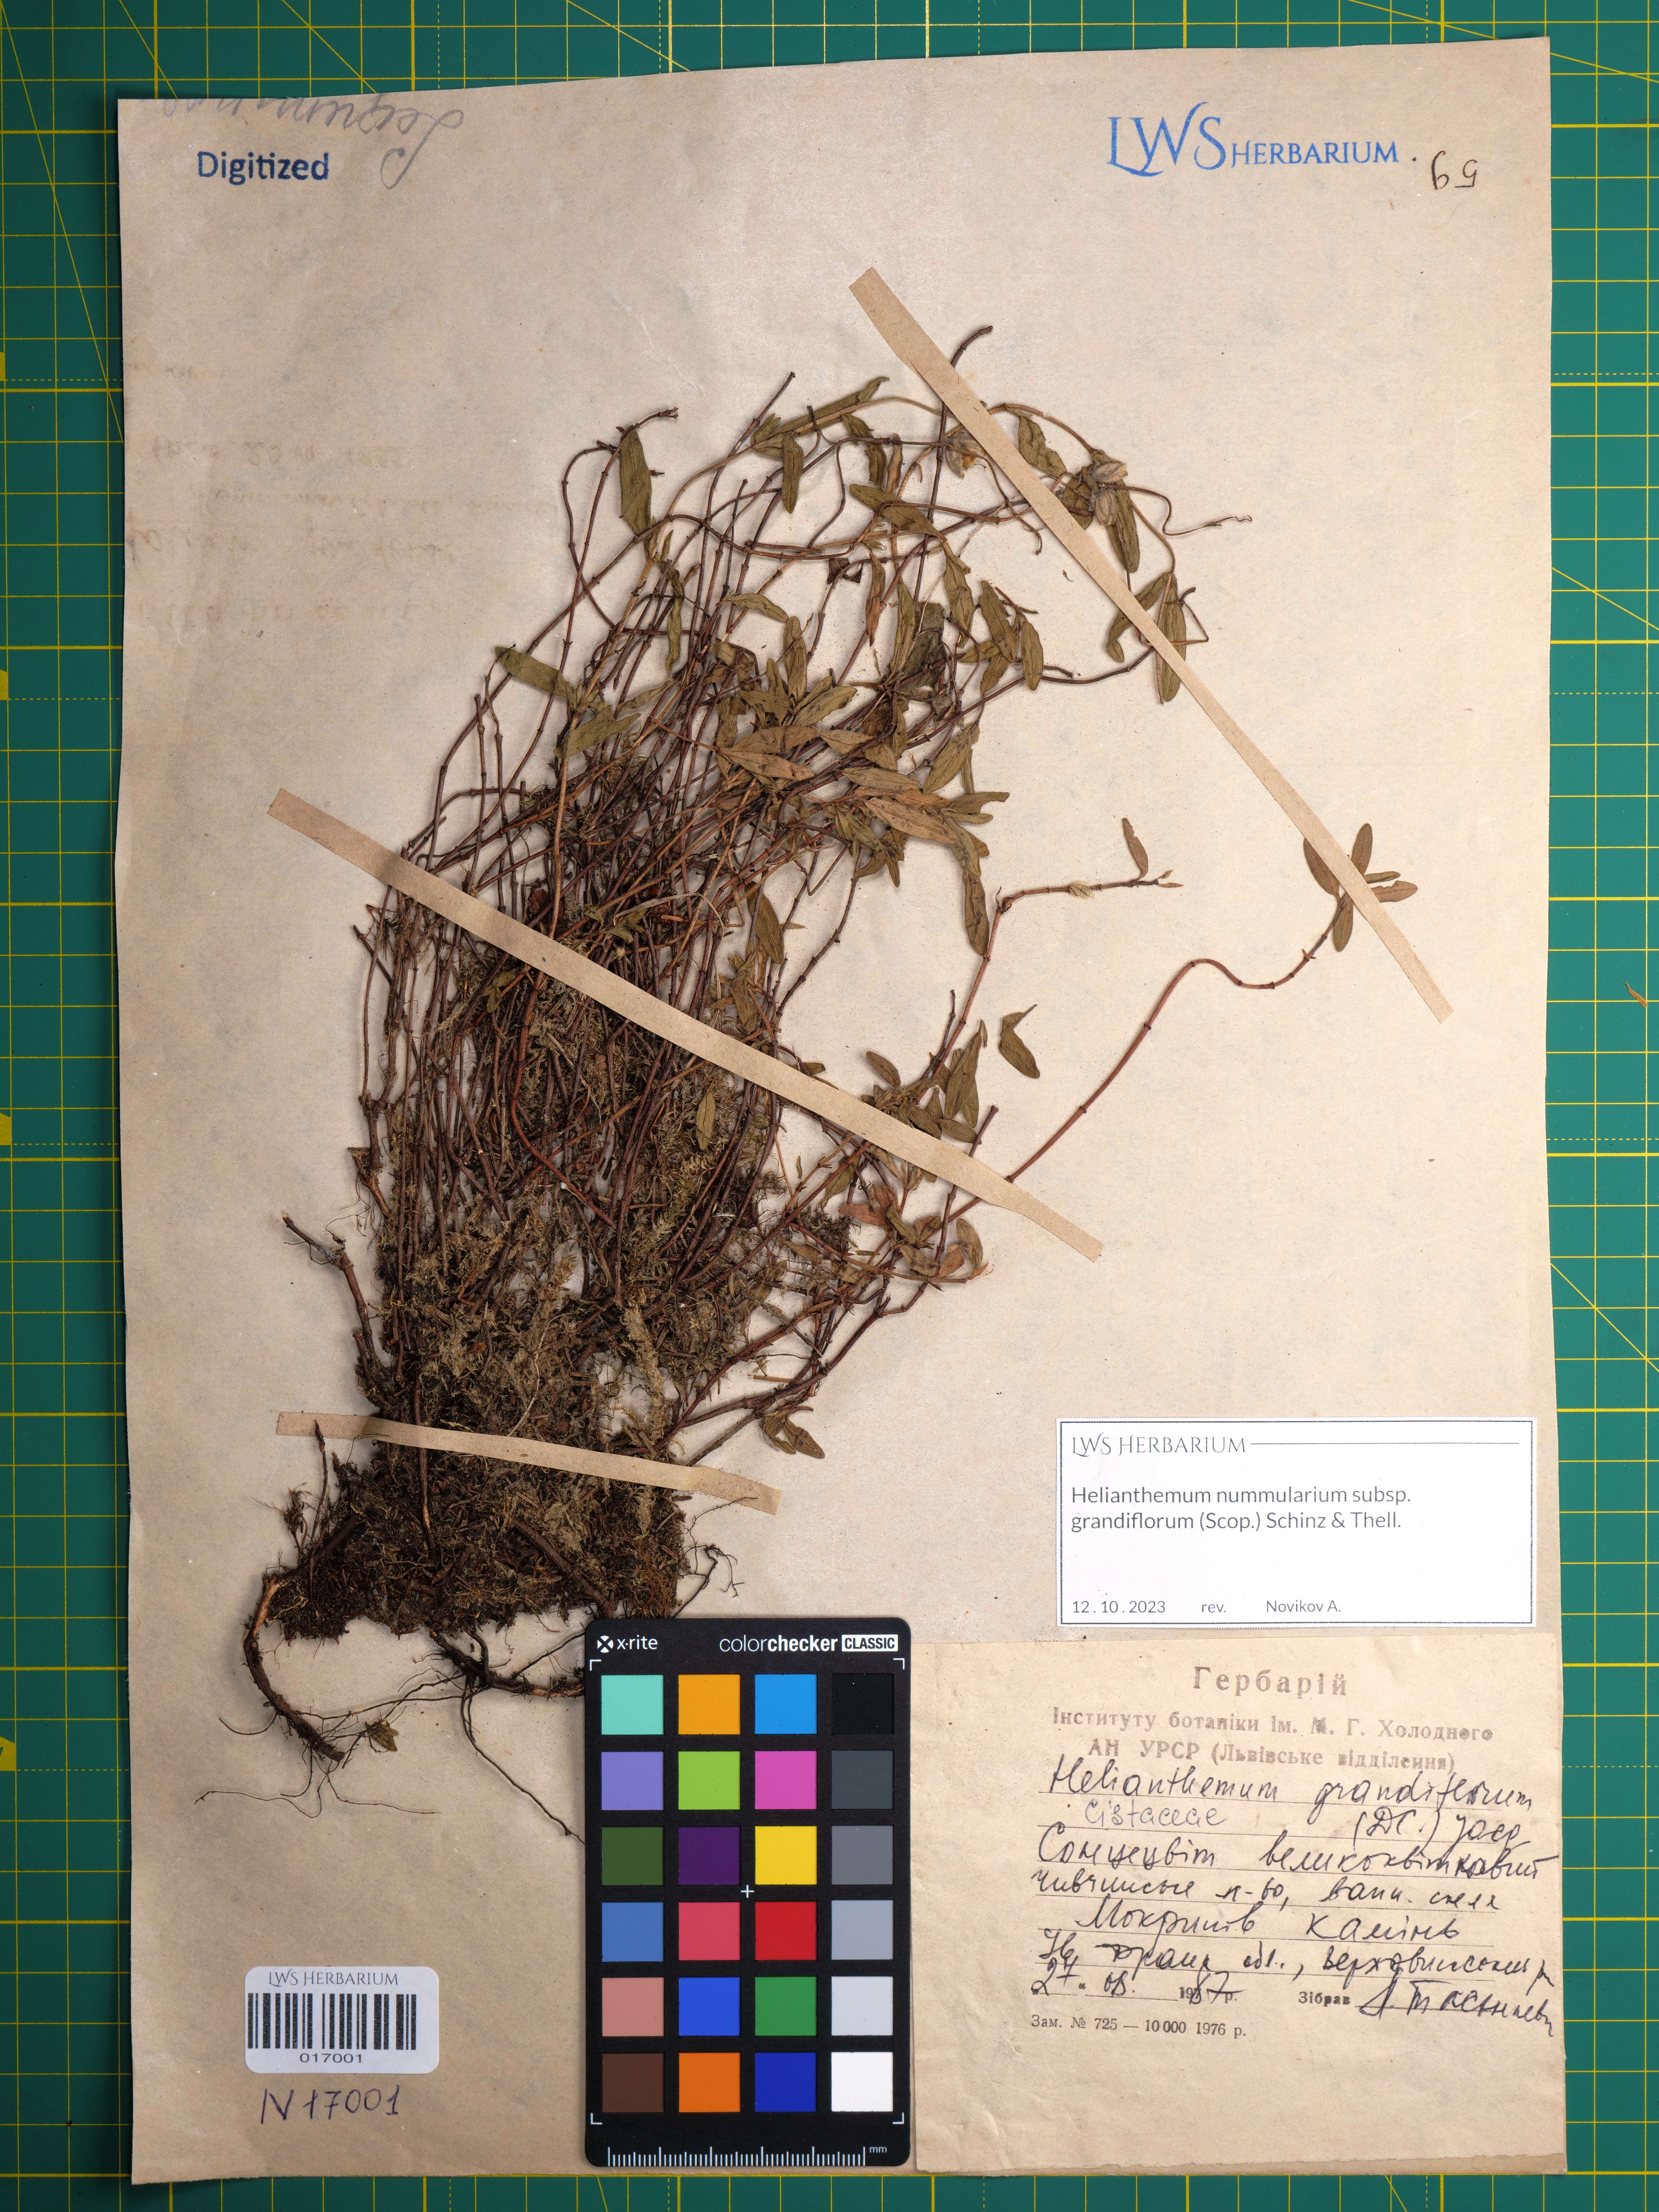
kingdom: Plantae
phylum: Tracheophyta
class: Magnoliopsida
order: Malvales
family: Cistaceae
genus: Helianthemum
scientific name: Helianthemum nummularium
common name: Common rock-rose
